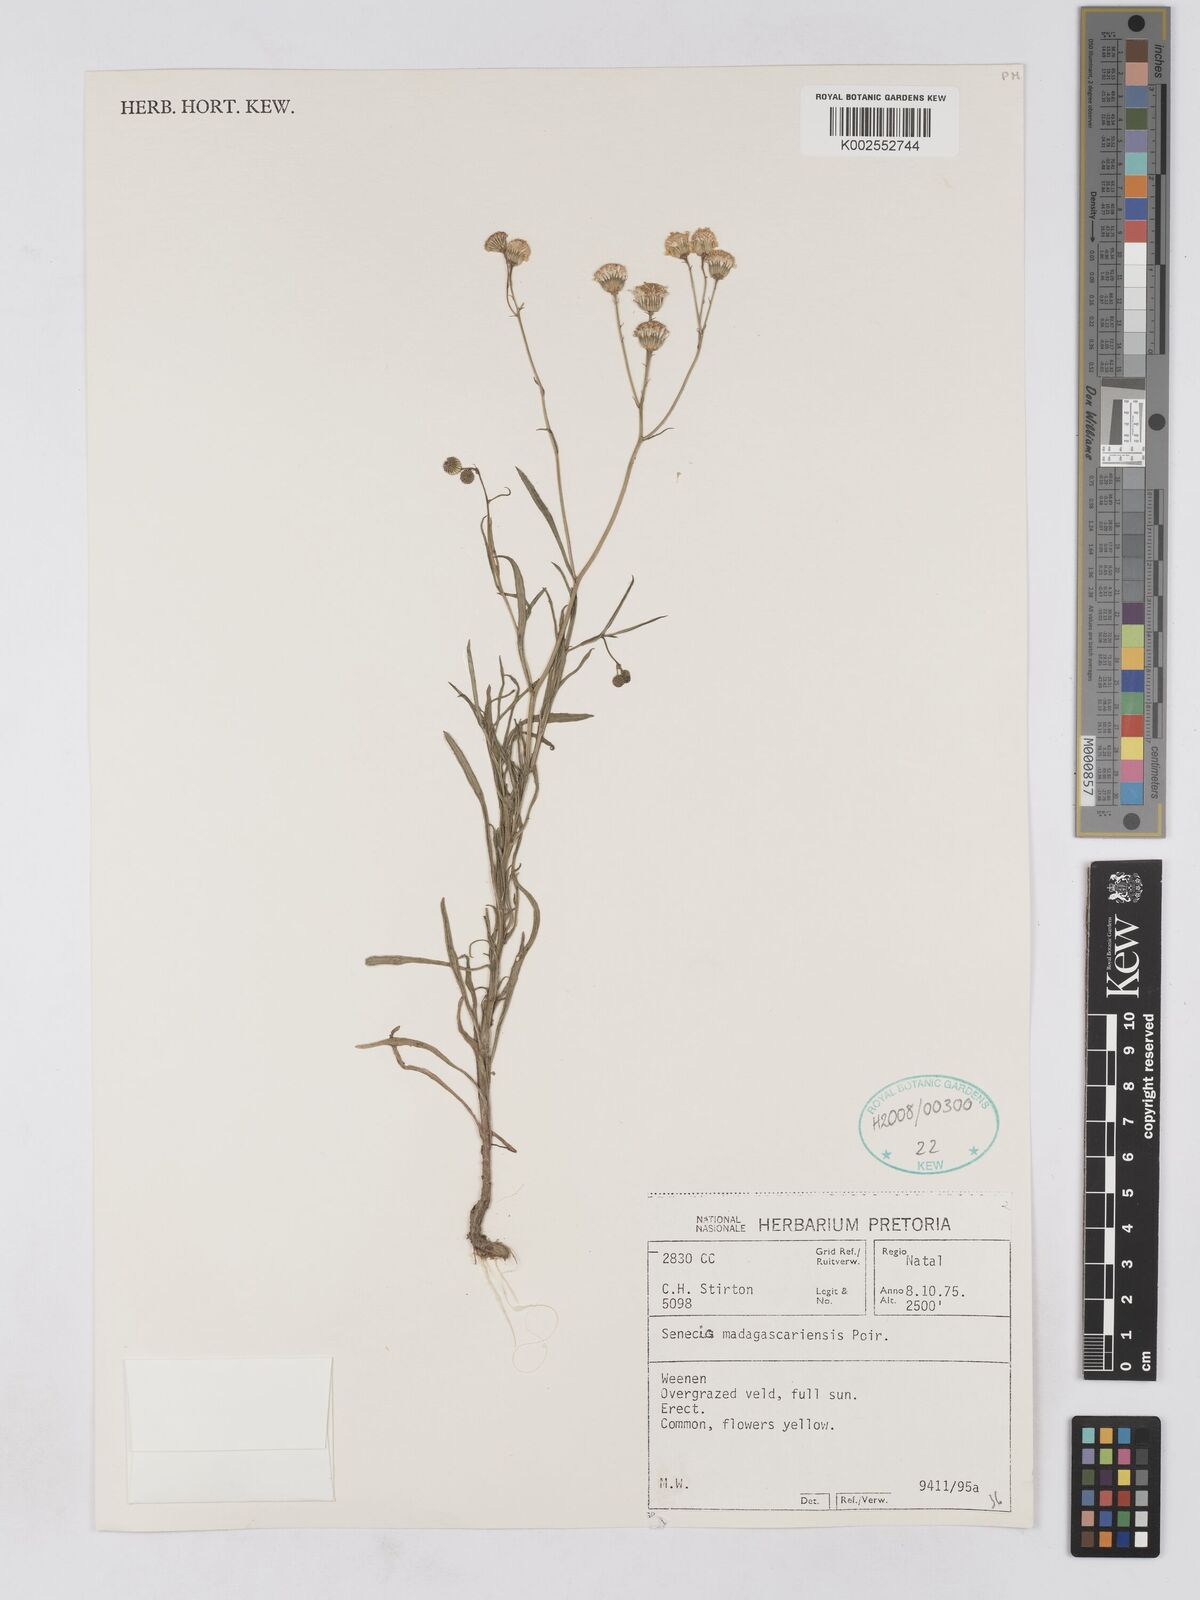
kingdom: Plantae
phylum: Tracheophyta
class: Magnoliopsida
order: Asterales
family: Asteraceae
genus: Senecio
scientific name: Senecio madagascariensis
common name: Madagascar ragwort
